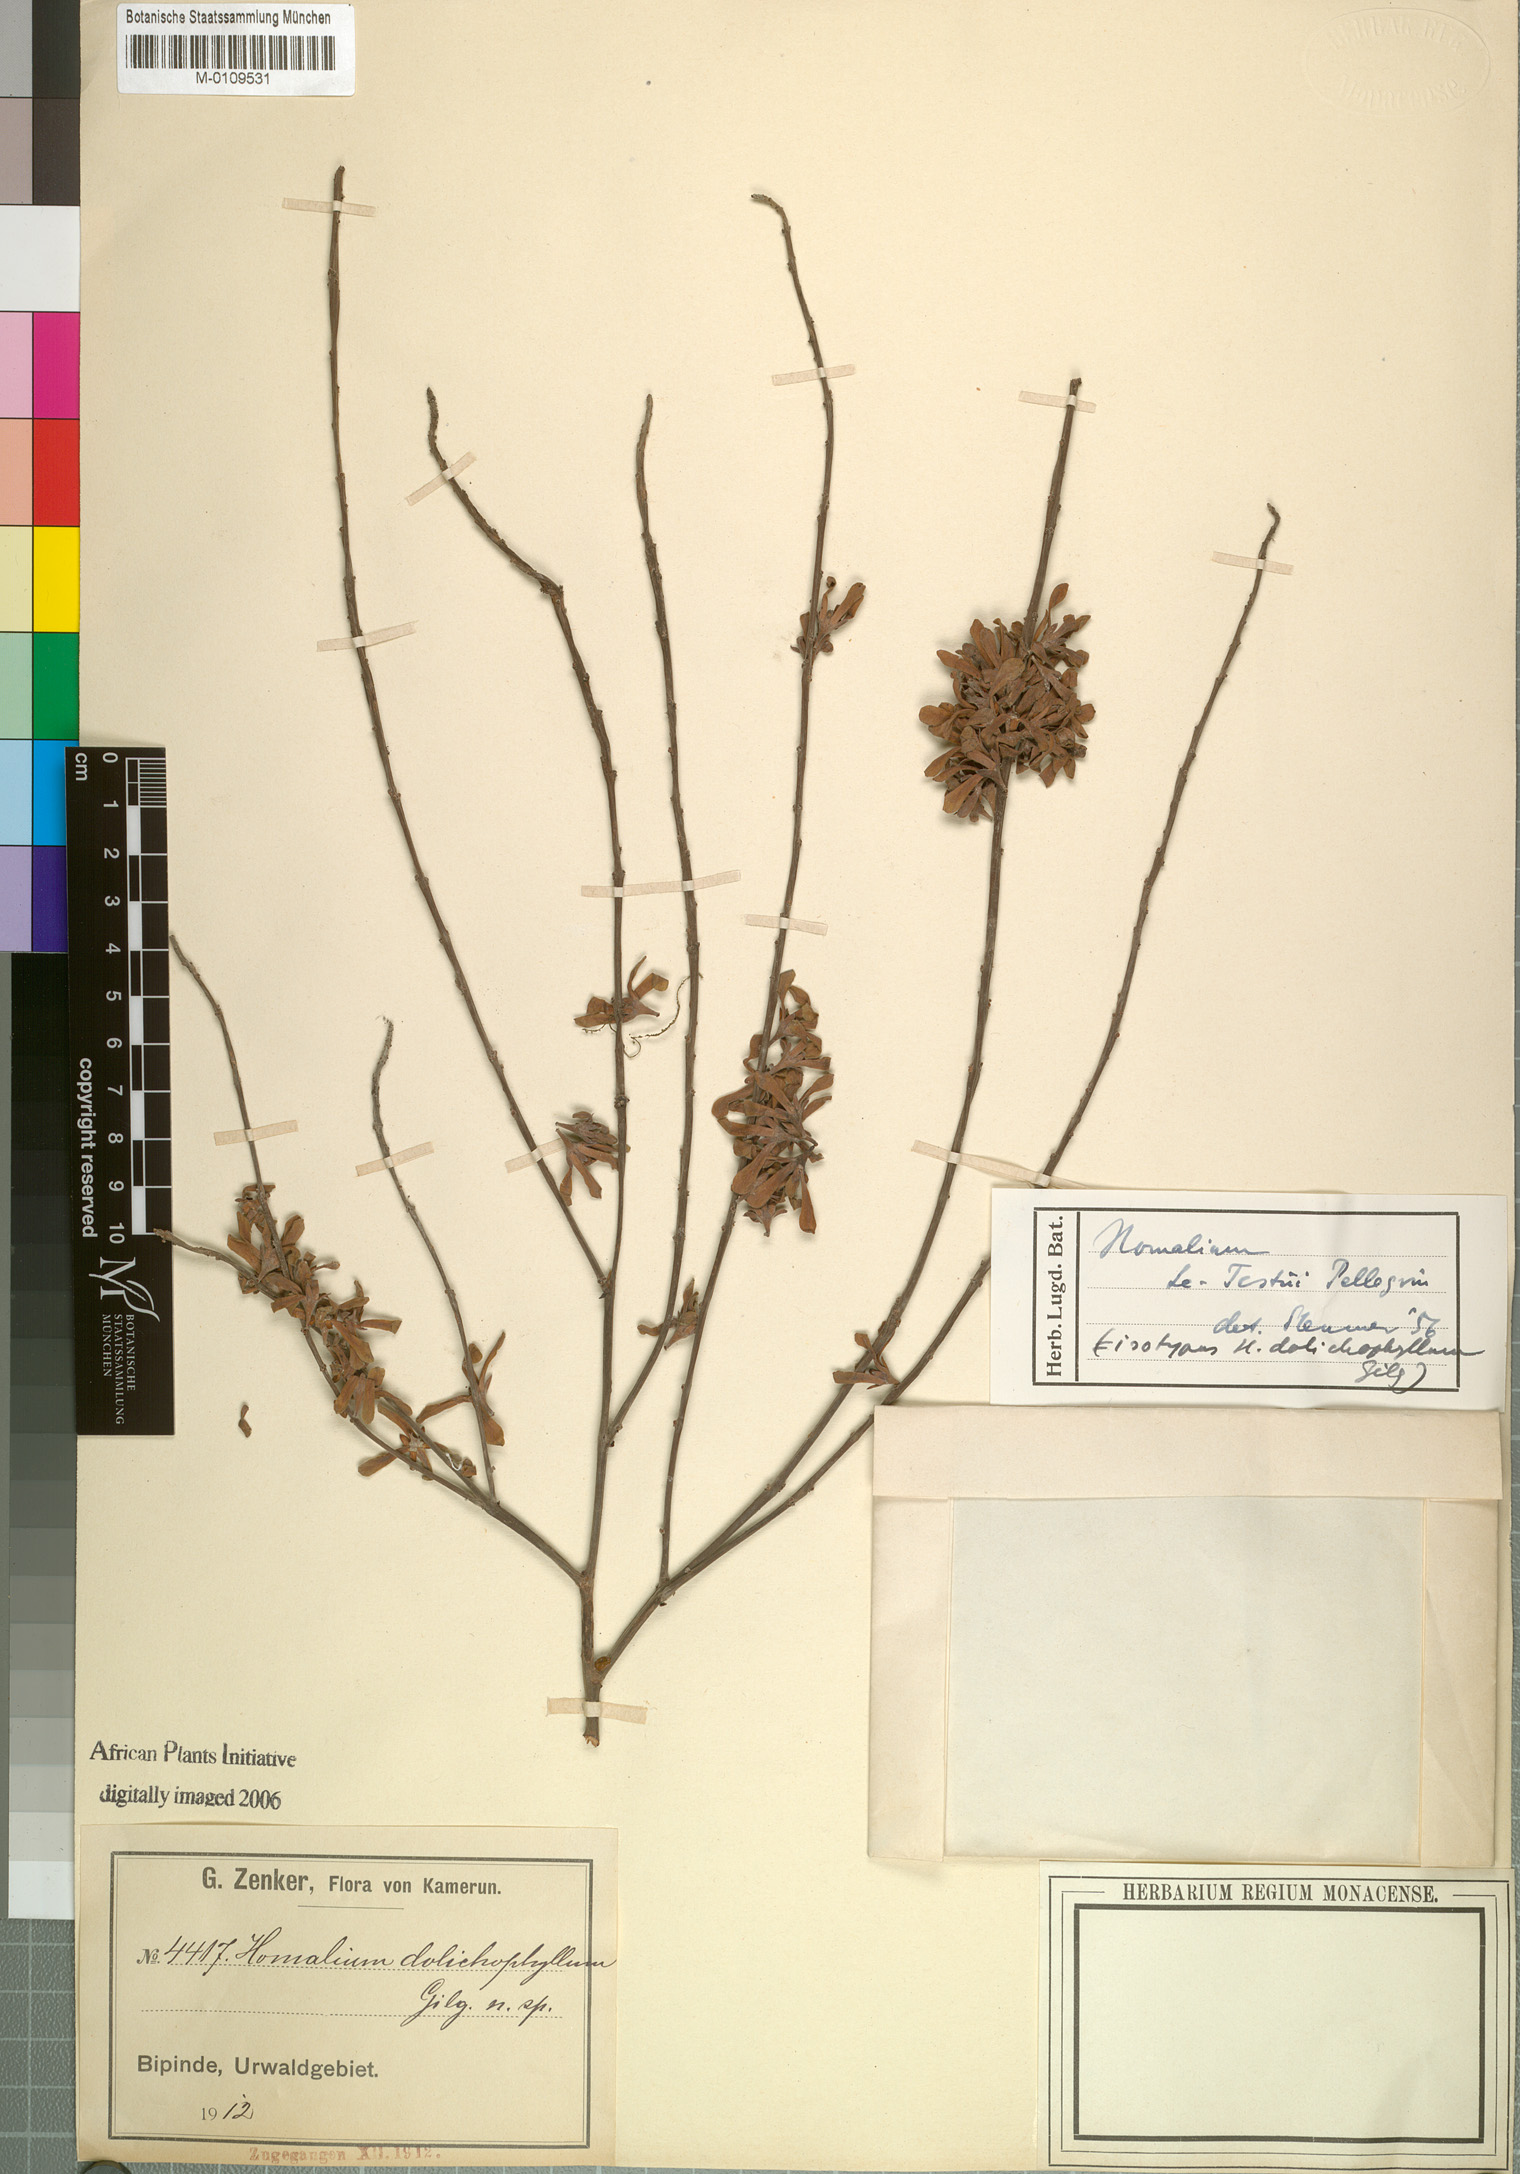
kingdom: Plantae
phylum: Tracheophyta
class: Magnoliopsida
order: Malpighiales
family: Salicaceae
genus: Homalium
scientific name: Homalium letestui
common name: African homalium
